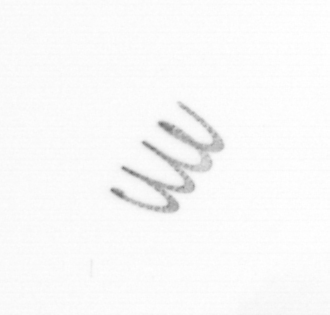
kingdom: Chromista
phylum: Ochrophyta
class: Bacillariophyceae
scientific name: Bacillariophyceae
